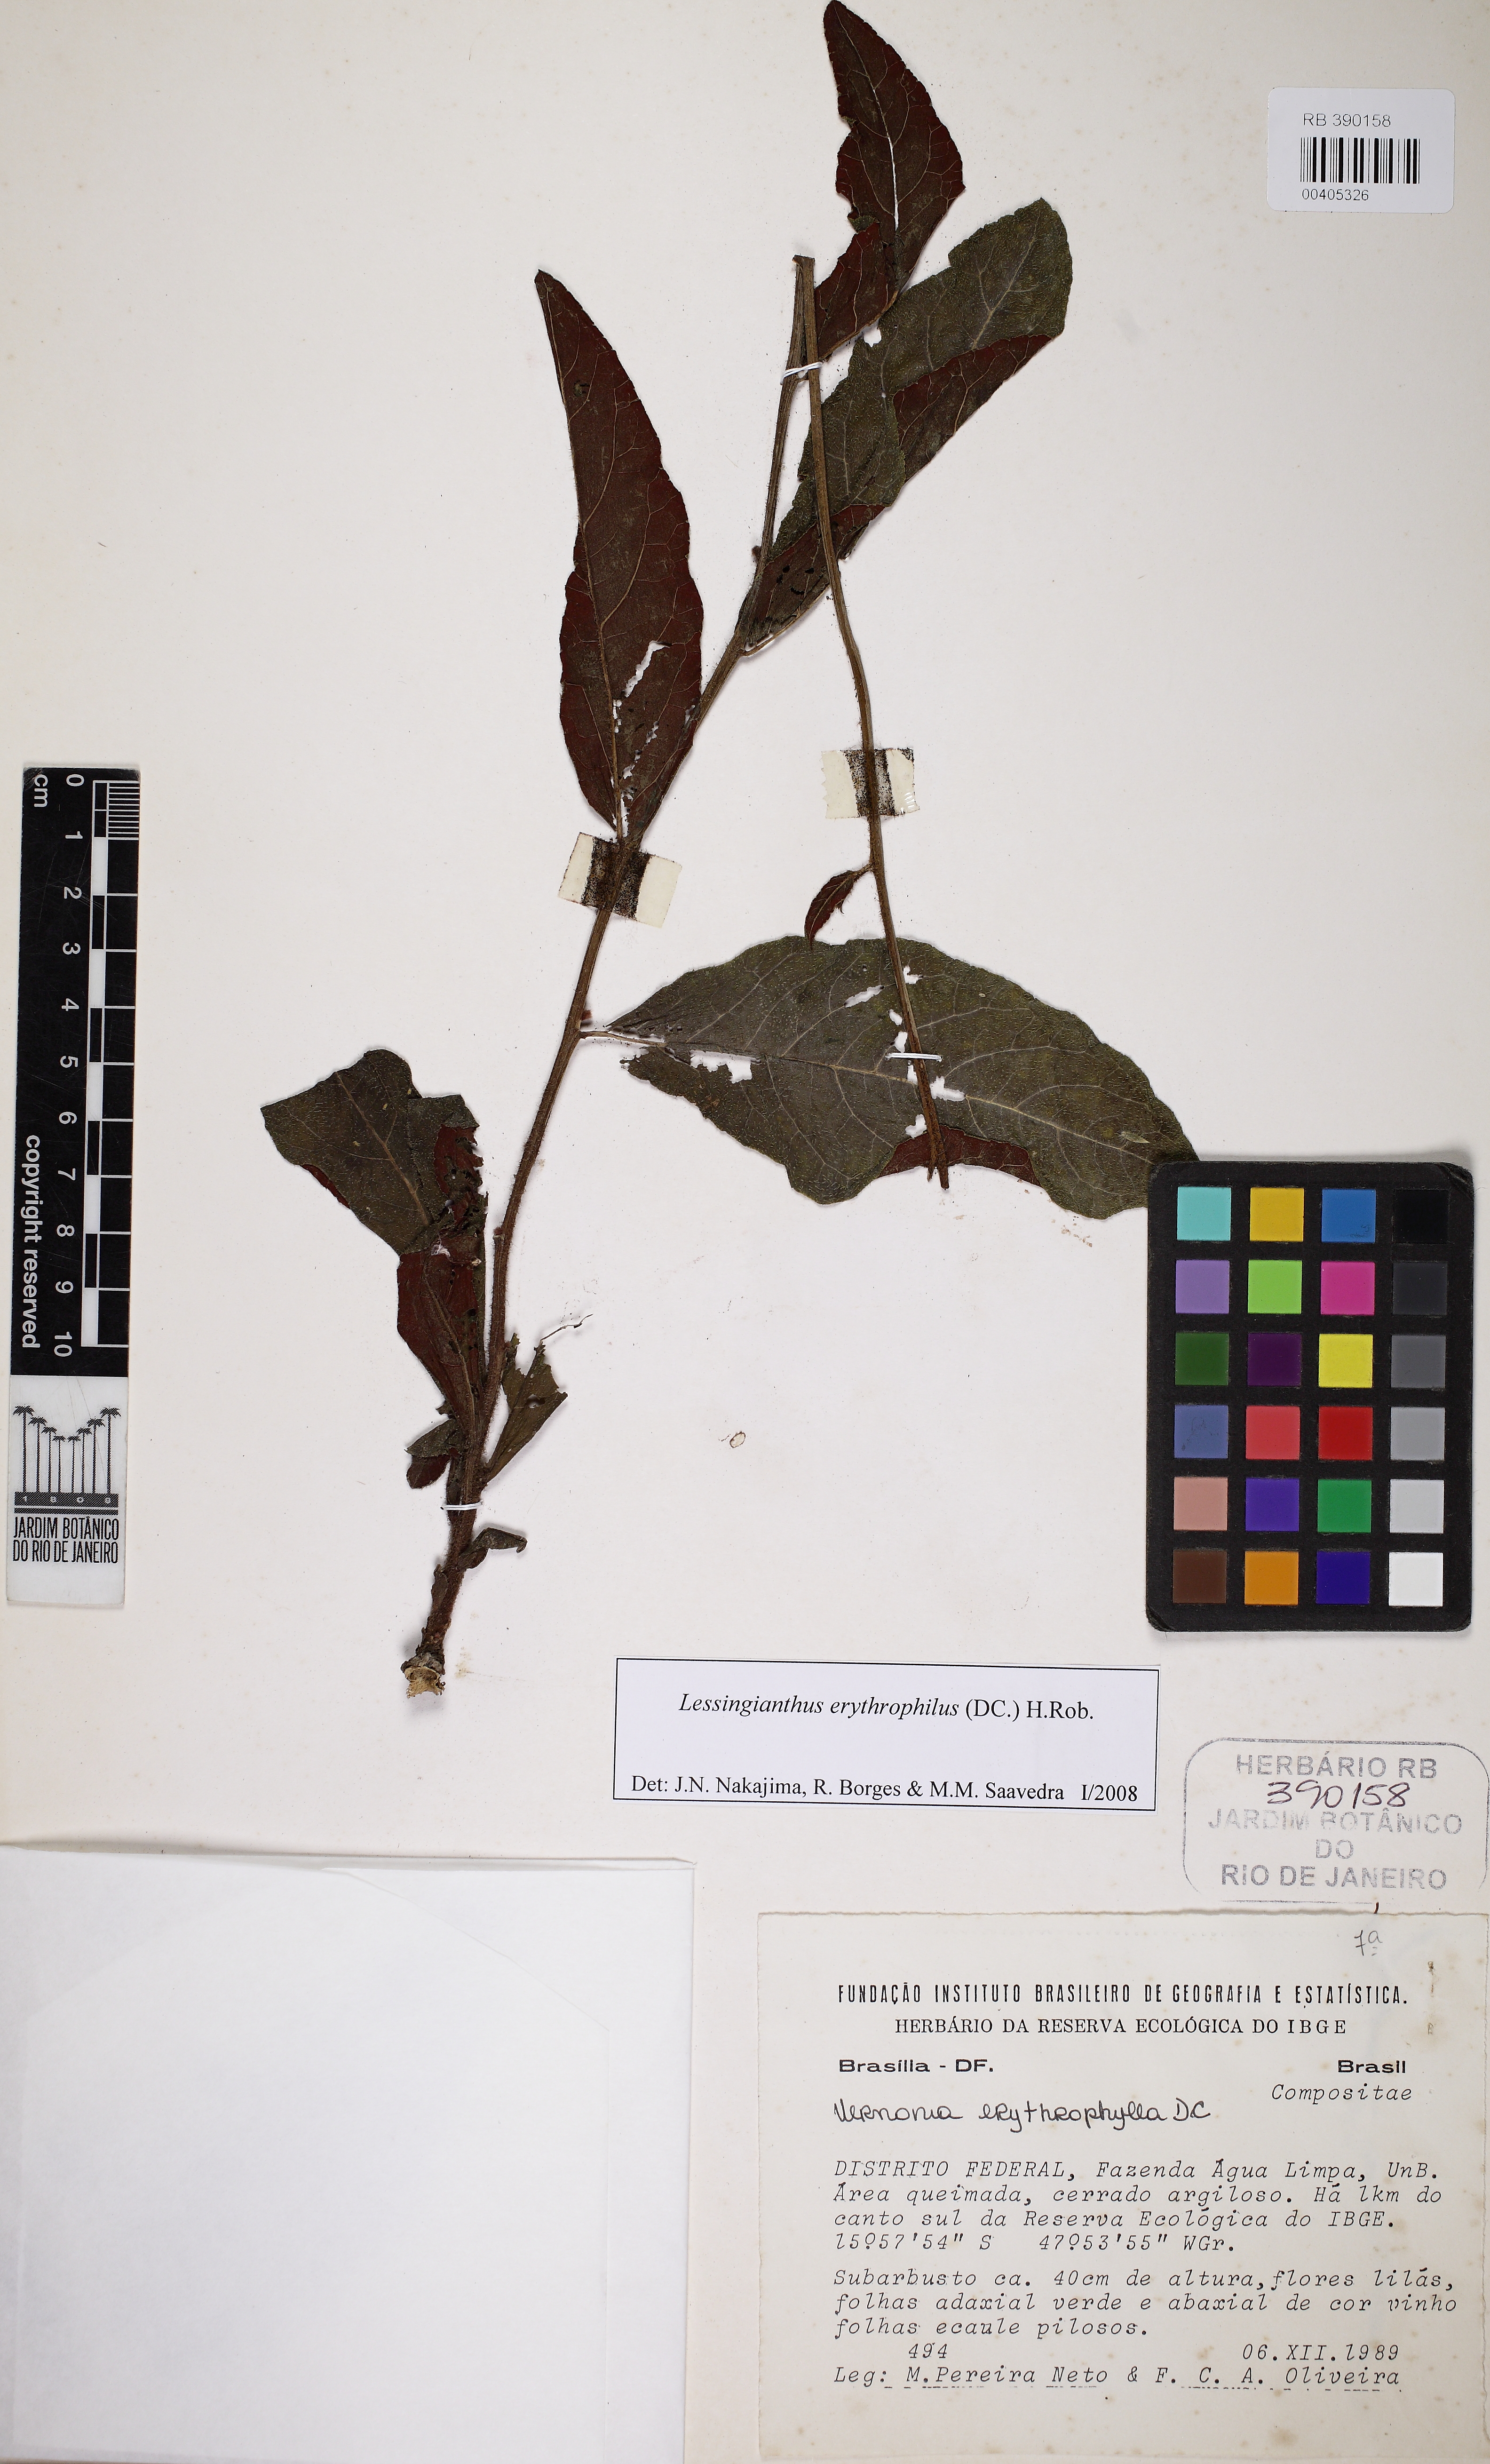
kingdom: Plantae
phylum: Tracheophyta
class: Magnoliopsida
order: Asterales
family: Asteraceae
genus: Lessingianthus
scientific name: Lessingianthus erythrophilus
